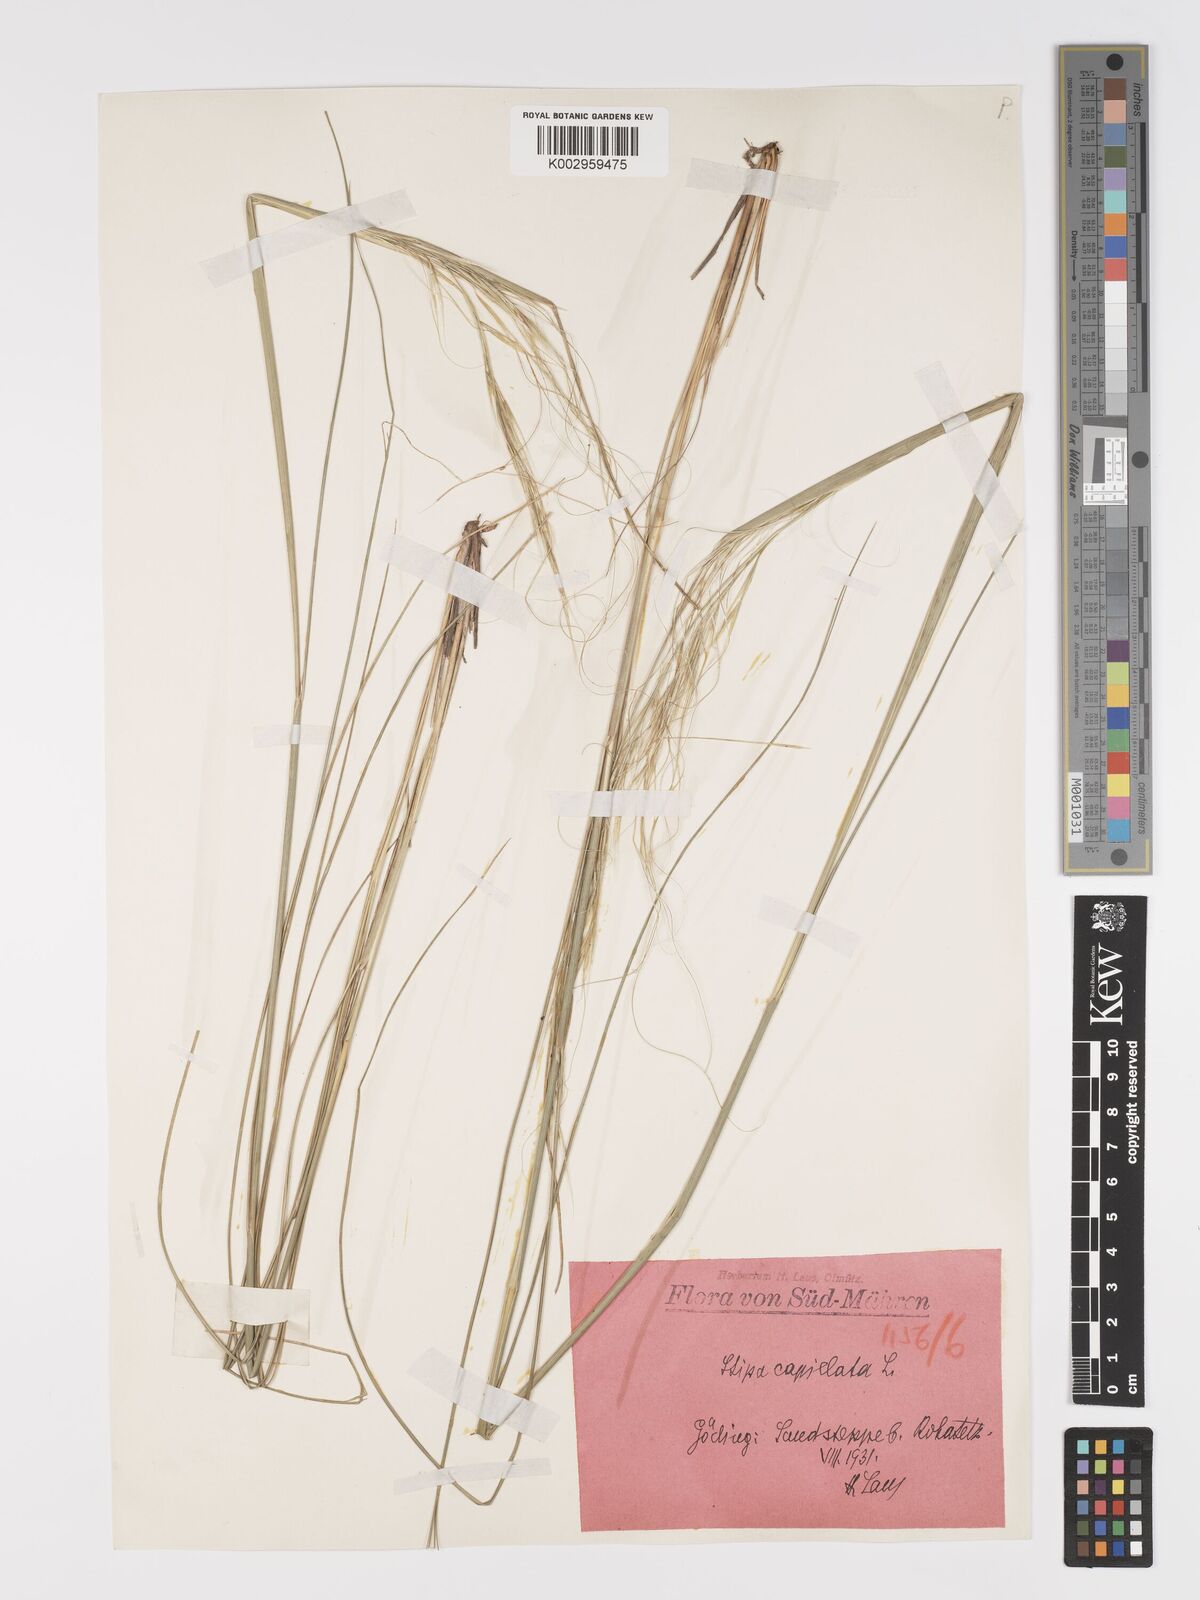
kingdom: Plantae
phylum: Tracheophyta
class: Liliopsida
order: Poales
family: Poaceae
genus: Stipa
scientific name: Stipa capillata
